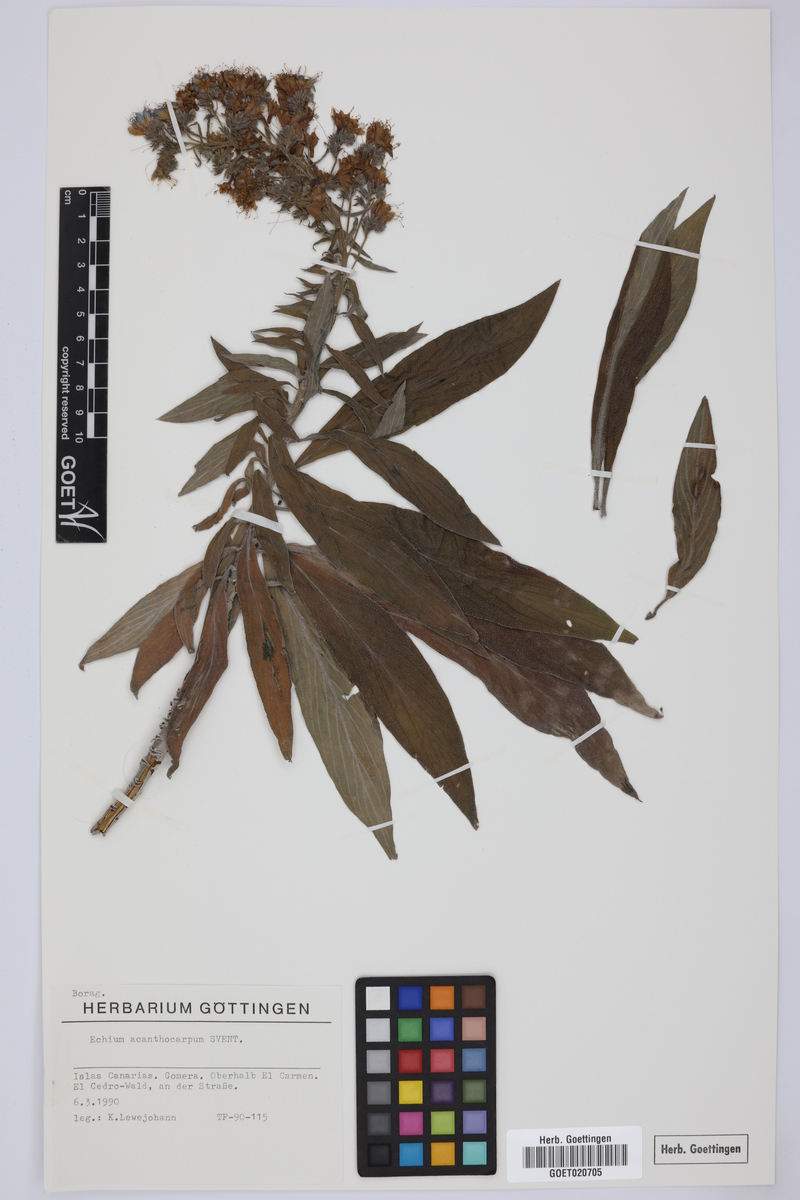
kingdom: Plantae
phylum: Tracheophyta
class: Magnoliopsida
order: Boraginales
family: Boraginaceae
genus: Echium
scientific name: Echium acanthocarpum
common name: Blue bugloss
